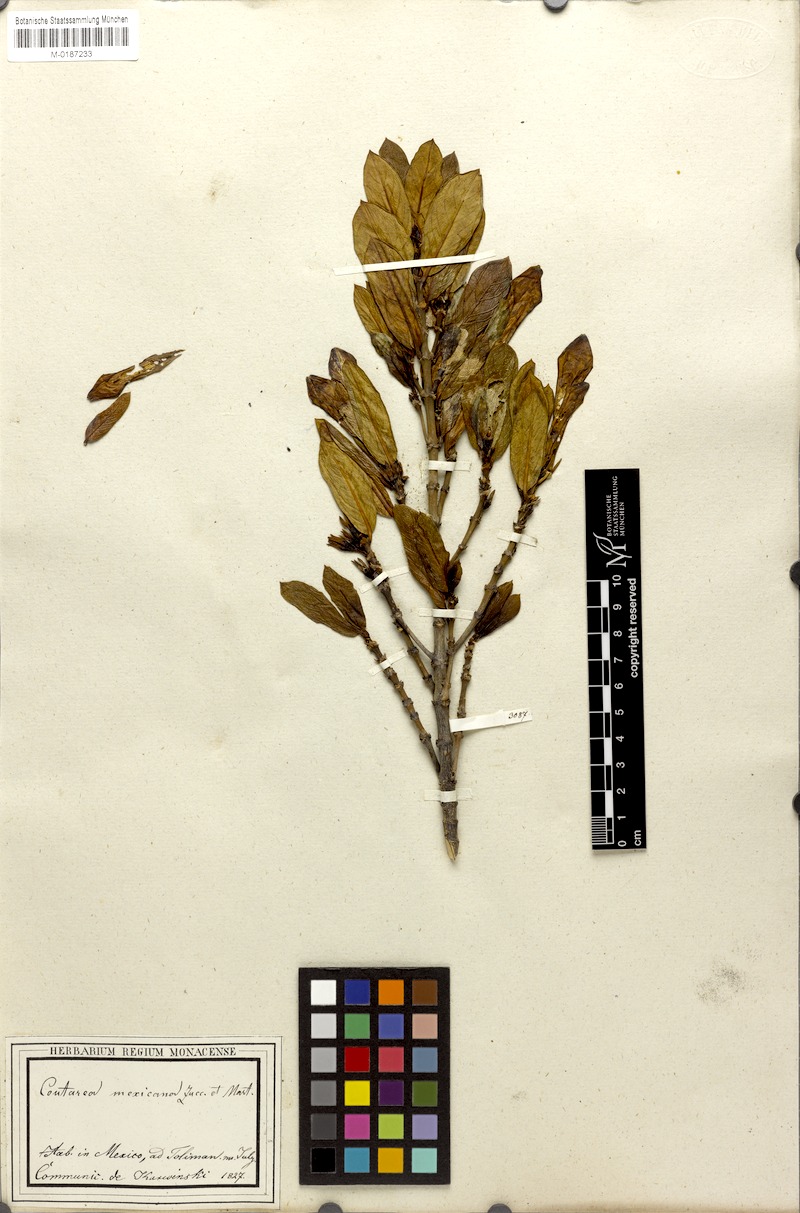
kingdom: Plantae
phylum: Tracheophyta
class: Magnoliopsida
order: Gentianales
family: Rubiaceae
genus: Nernstia
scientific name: Nernstia mexicana
